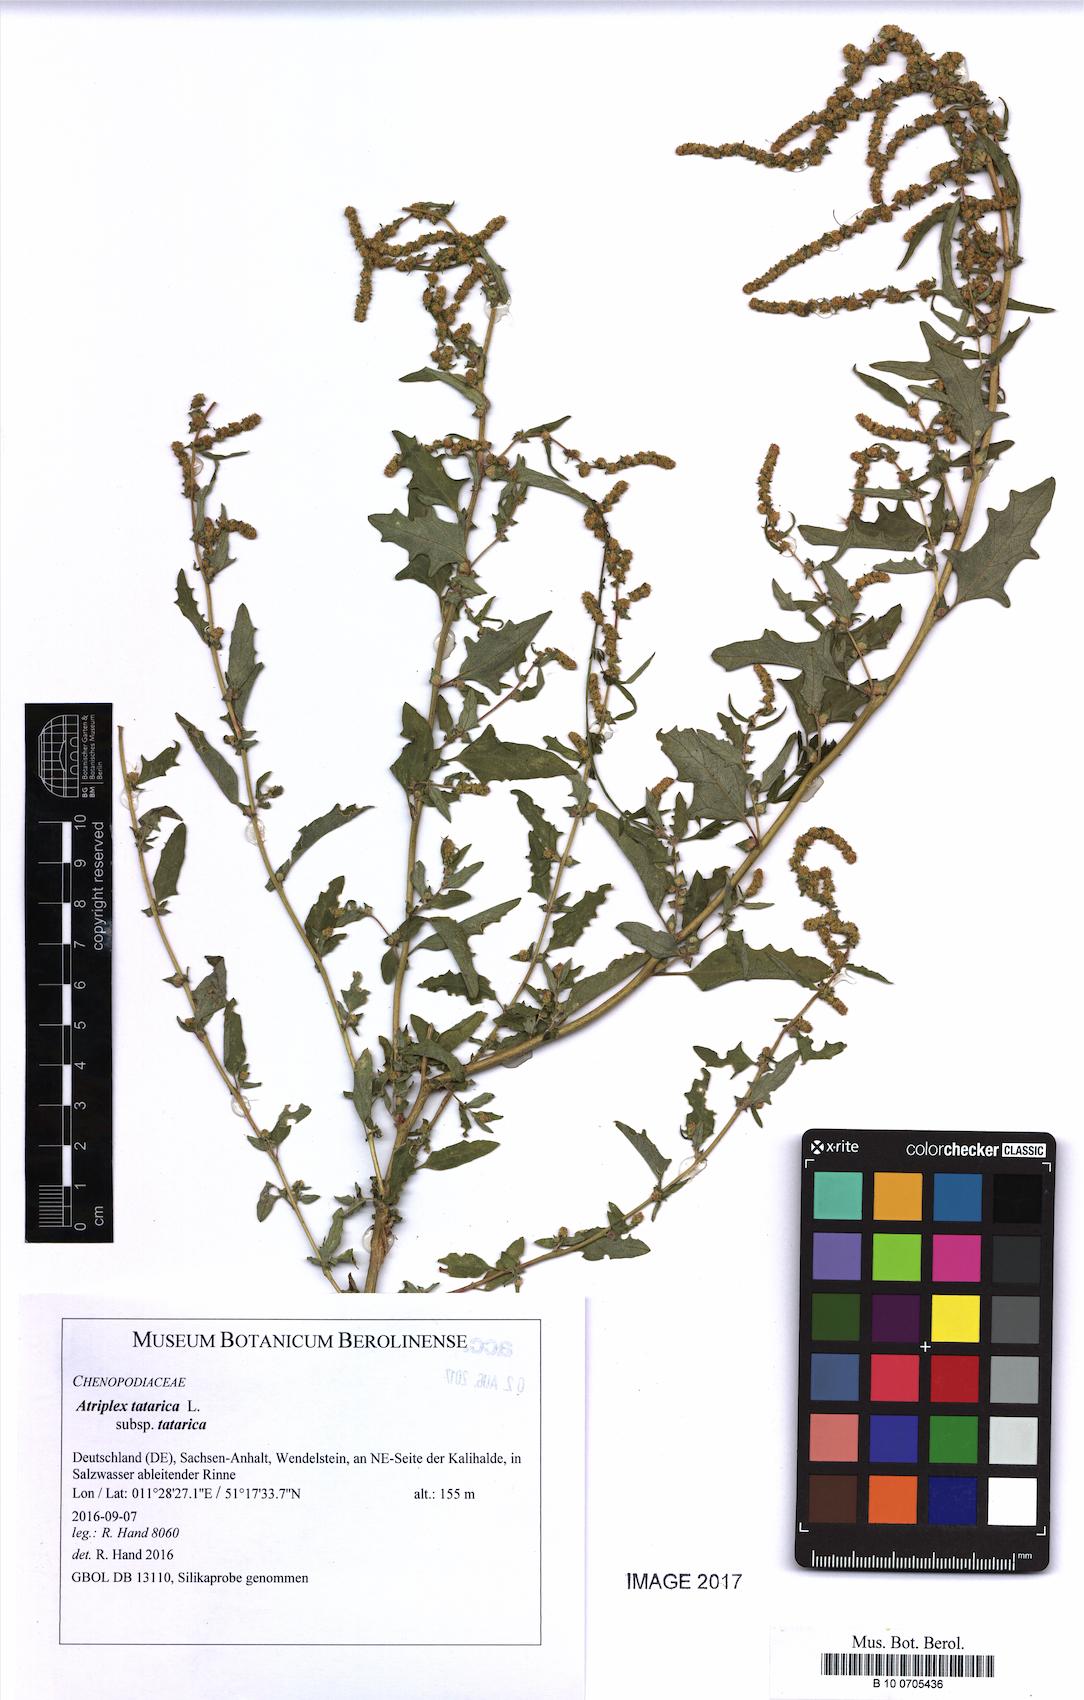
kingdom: Plantae
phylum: Tracheophyta
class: Magnoliopsida
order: Caryophyllales
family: Amaranthaceae
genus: Atriplex
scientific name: Atriplex tatarica
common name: Tatarian orache
